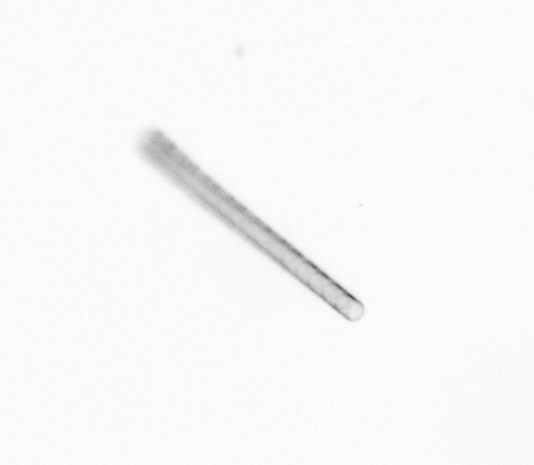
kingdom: Chromista
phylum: Ochrophyta
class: Bacillariophyceae
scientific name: Bacillariophyceae
